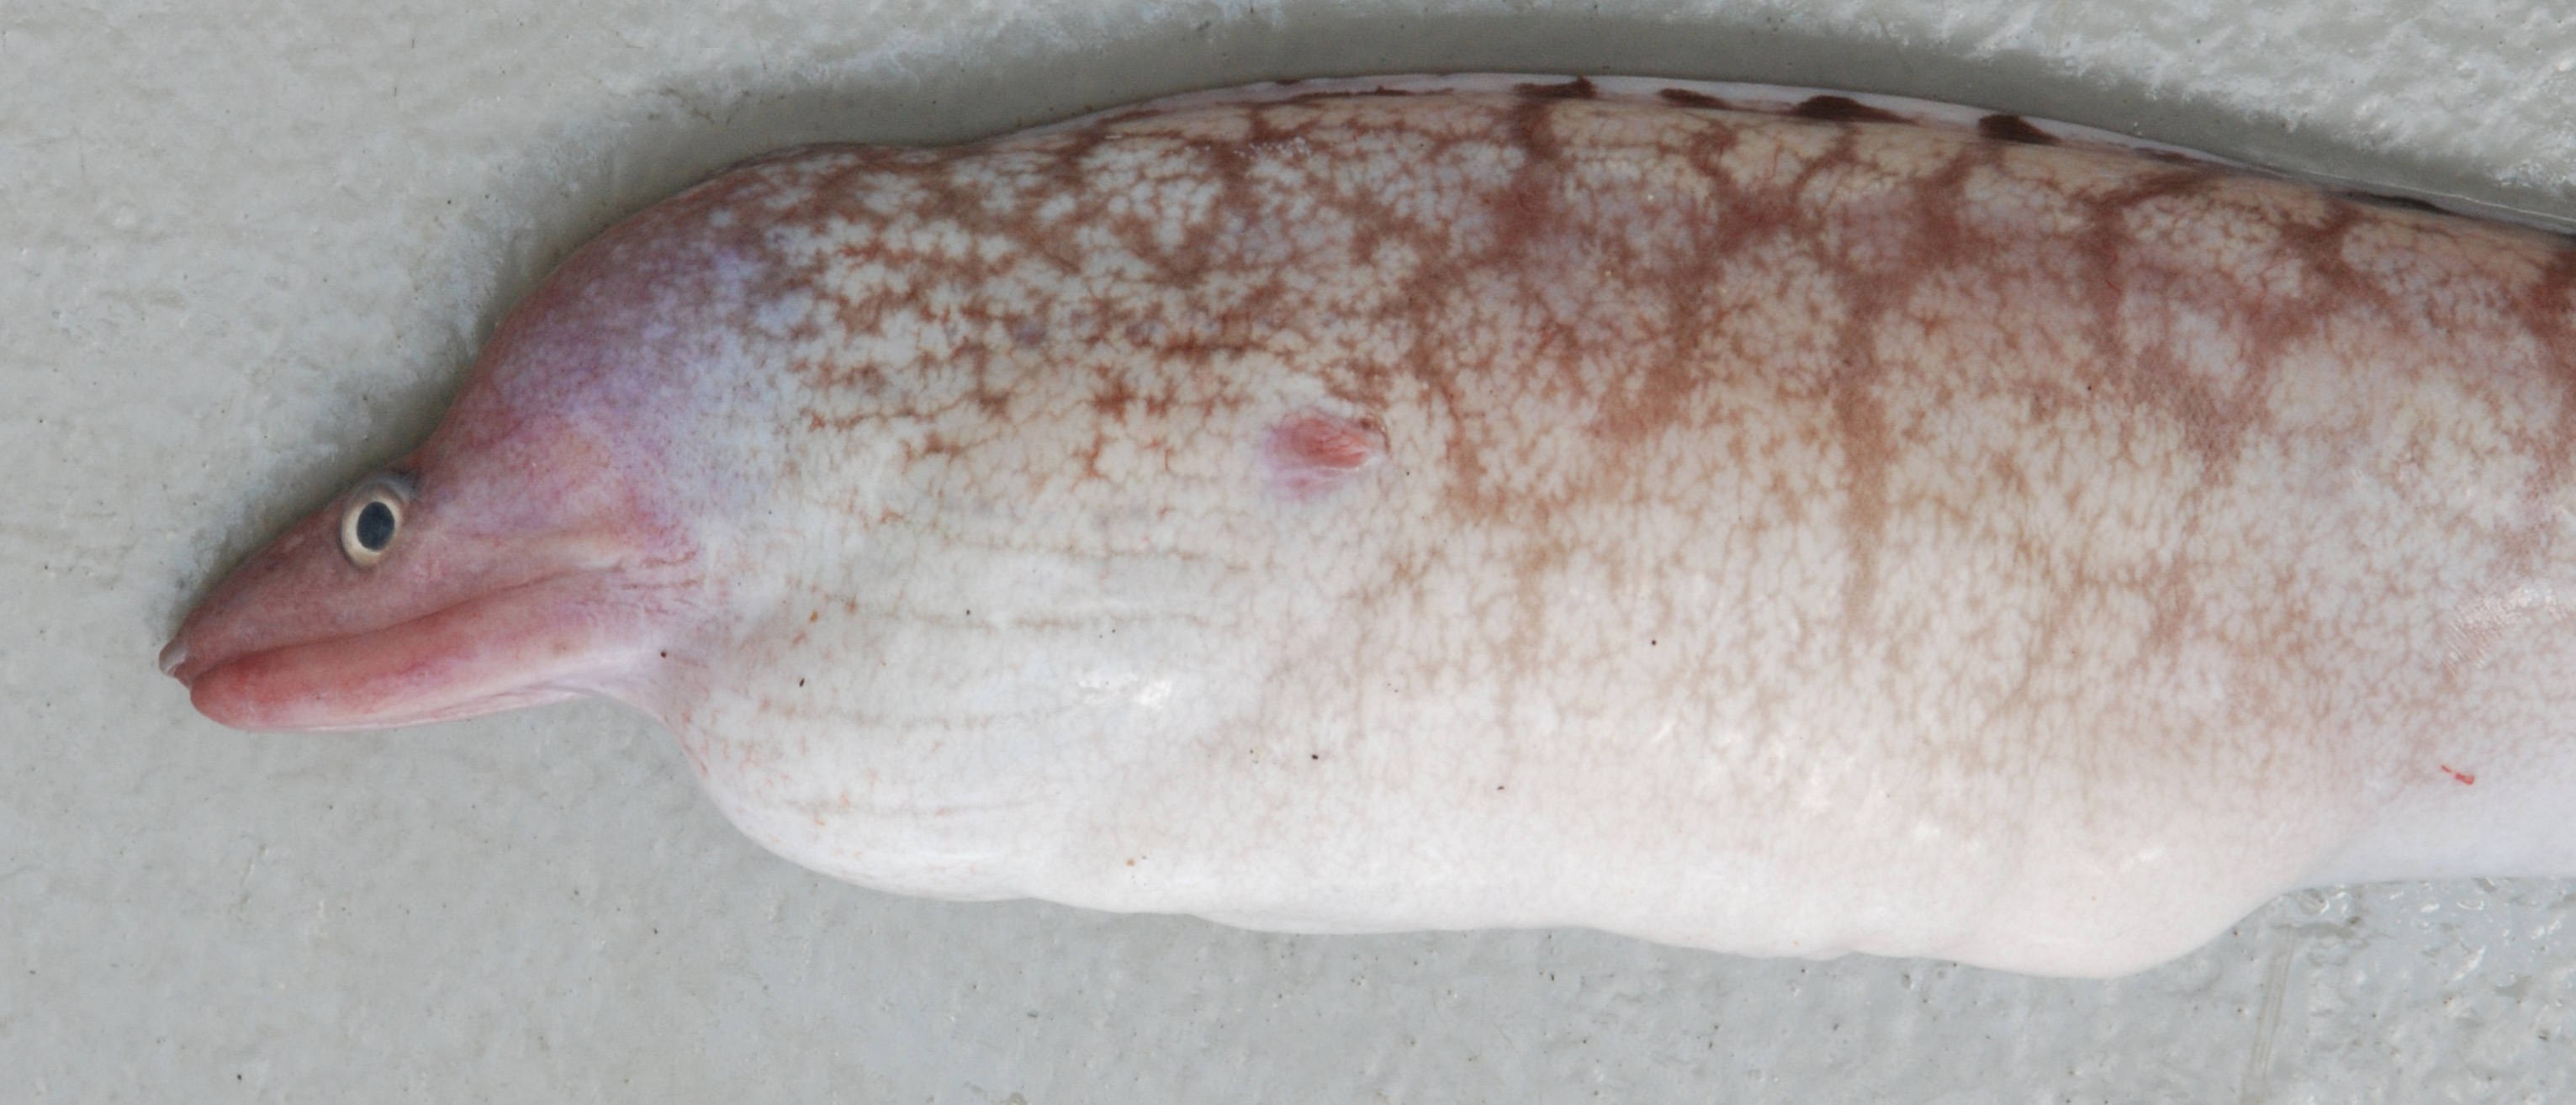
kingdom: Animalia
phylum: Chordata
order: Anguilliformes
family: Muraenidae
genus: Gymnothorax
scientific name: Gymnothorax ypsilon
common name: Y-bar moray
